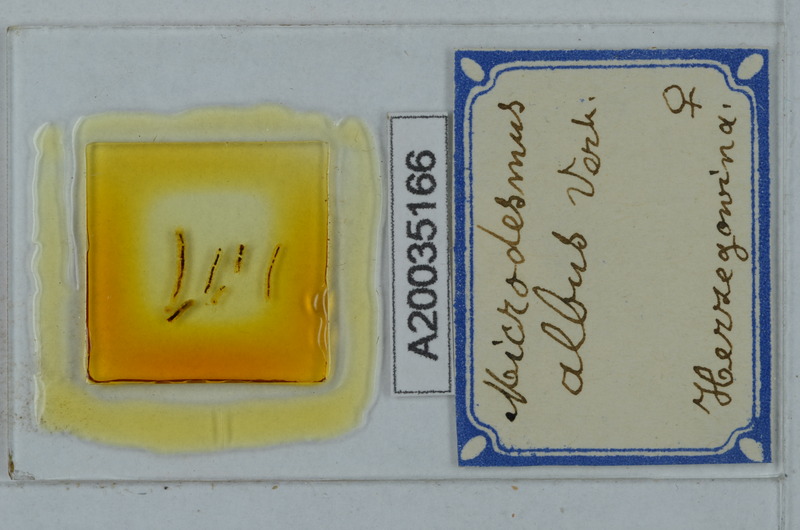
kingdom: Animalia
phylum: Arthropoda
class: Diplopoda
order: Polydesmida
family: Paradoxosomatidae
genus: Metonomastus
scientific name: Metonomastus albus
